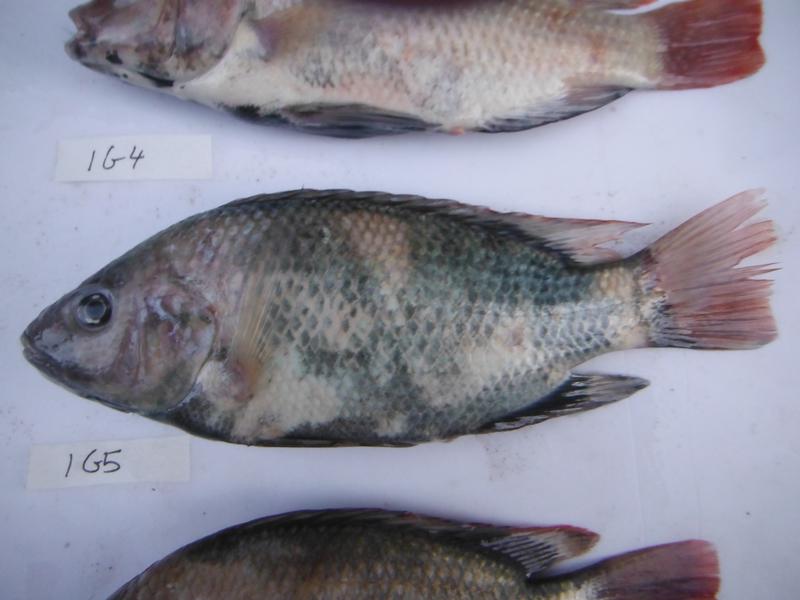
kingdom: Animalia
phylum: Chordata
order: Perciformes
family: Cichlidae
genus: Oreochromis
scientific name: Oreochromis rukwaensis
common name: Lake rukwa tilapia
